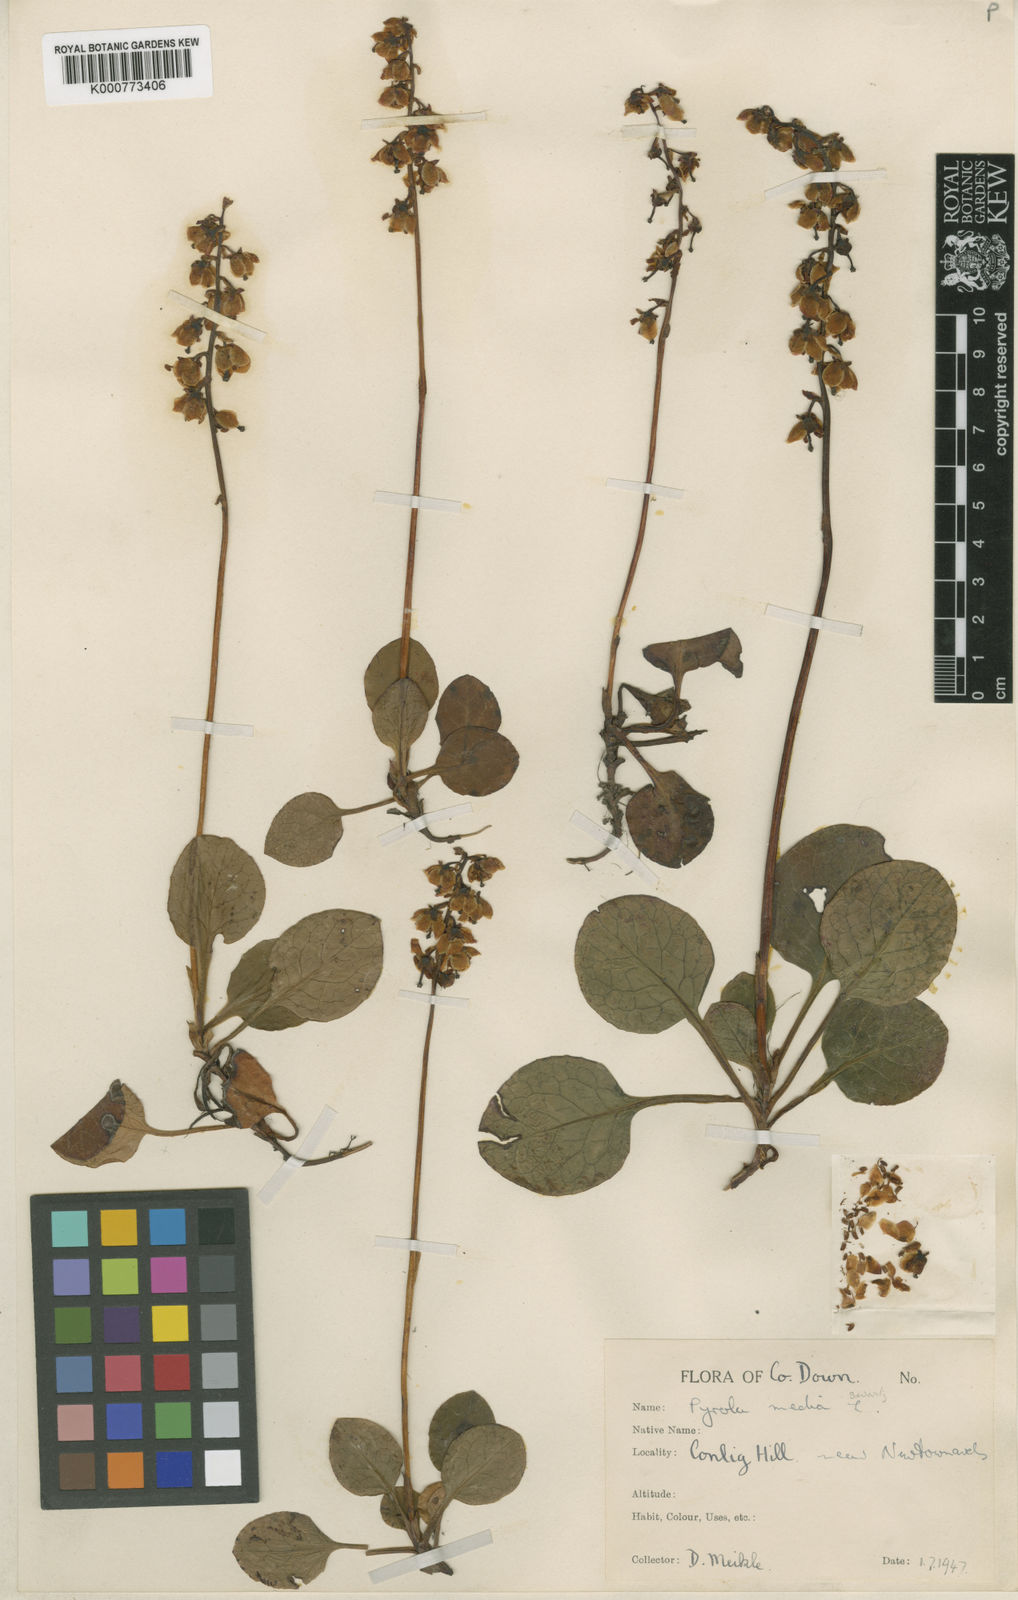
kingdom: Plantae
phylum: Tracheophyta
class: Magnoliopsida
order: Ericales
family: Ericaceae
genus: Pyrola
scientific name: Pyrola media
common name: Intermediate wintergreen
